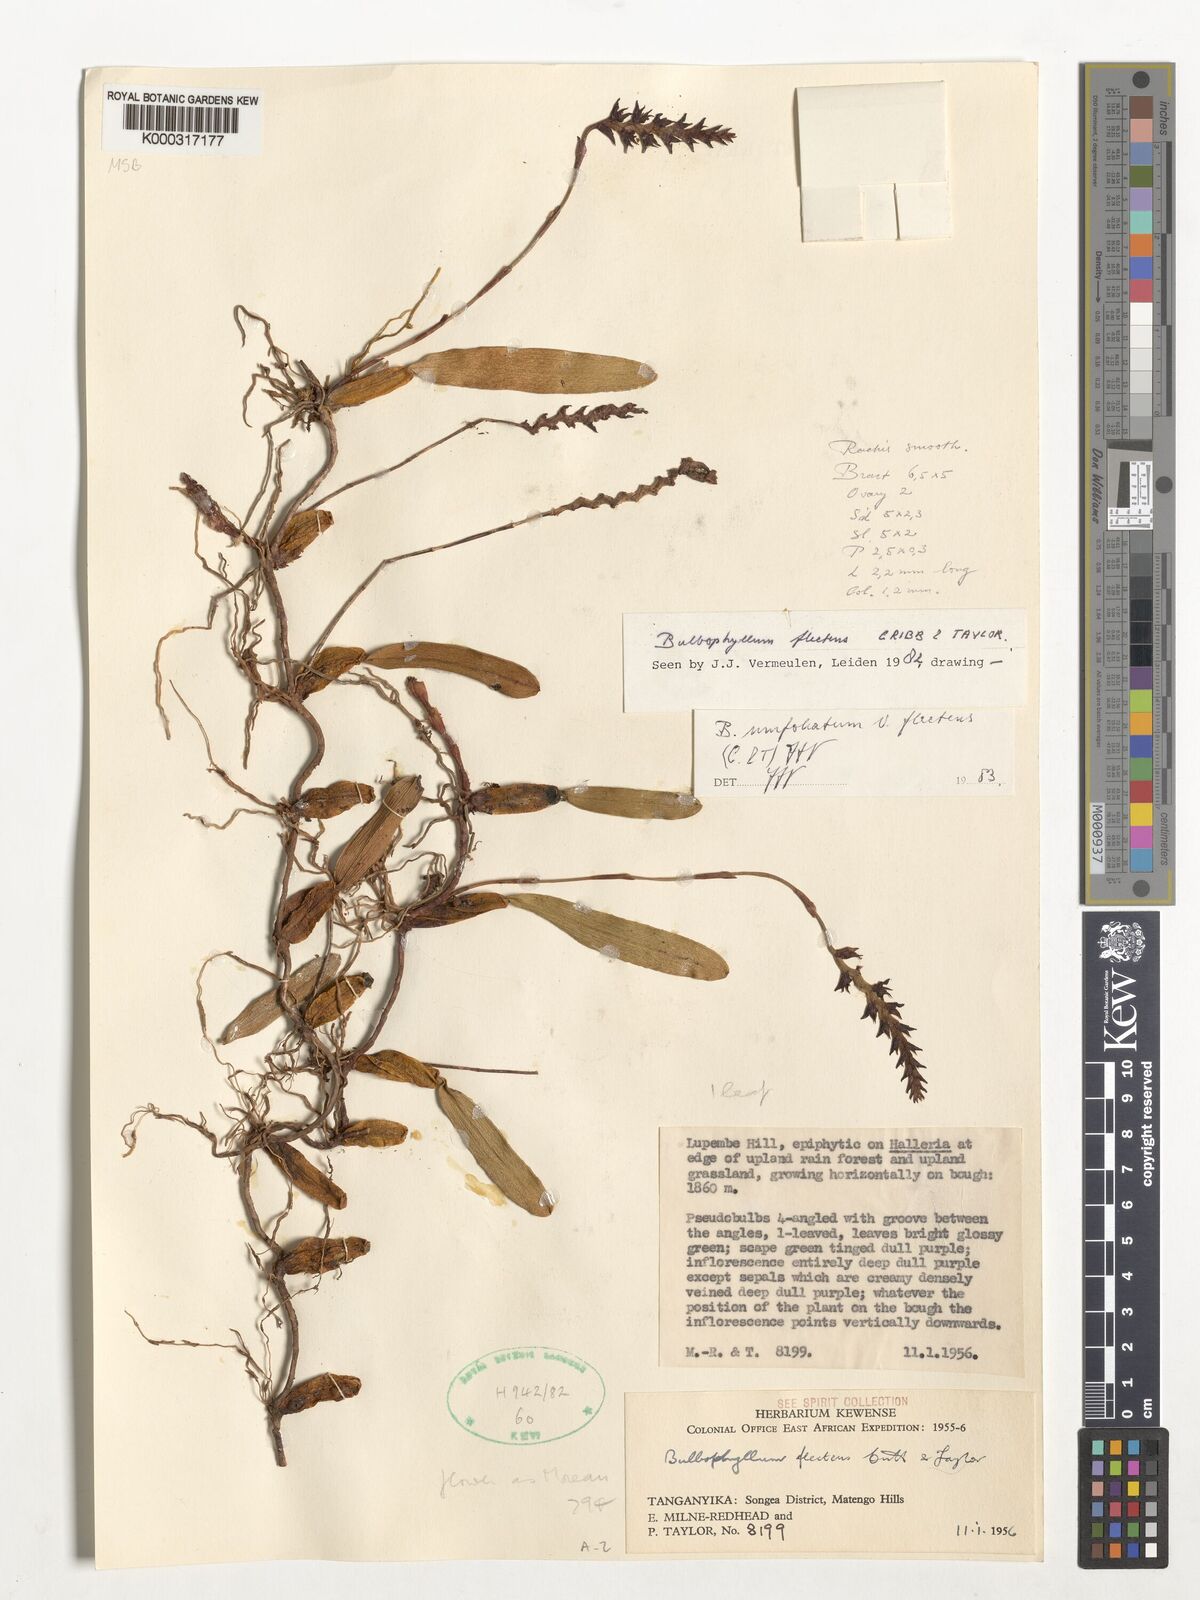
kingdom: Plantae
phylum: Tracheophyta
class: Liliopsida
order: Asparagales
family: Orchidaceae
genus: Bulbophyllum
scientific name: Bulbophyllum unifoliatum
